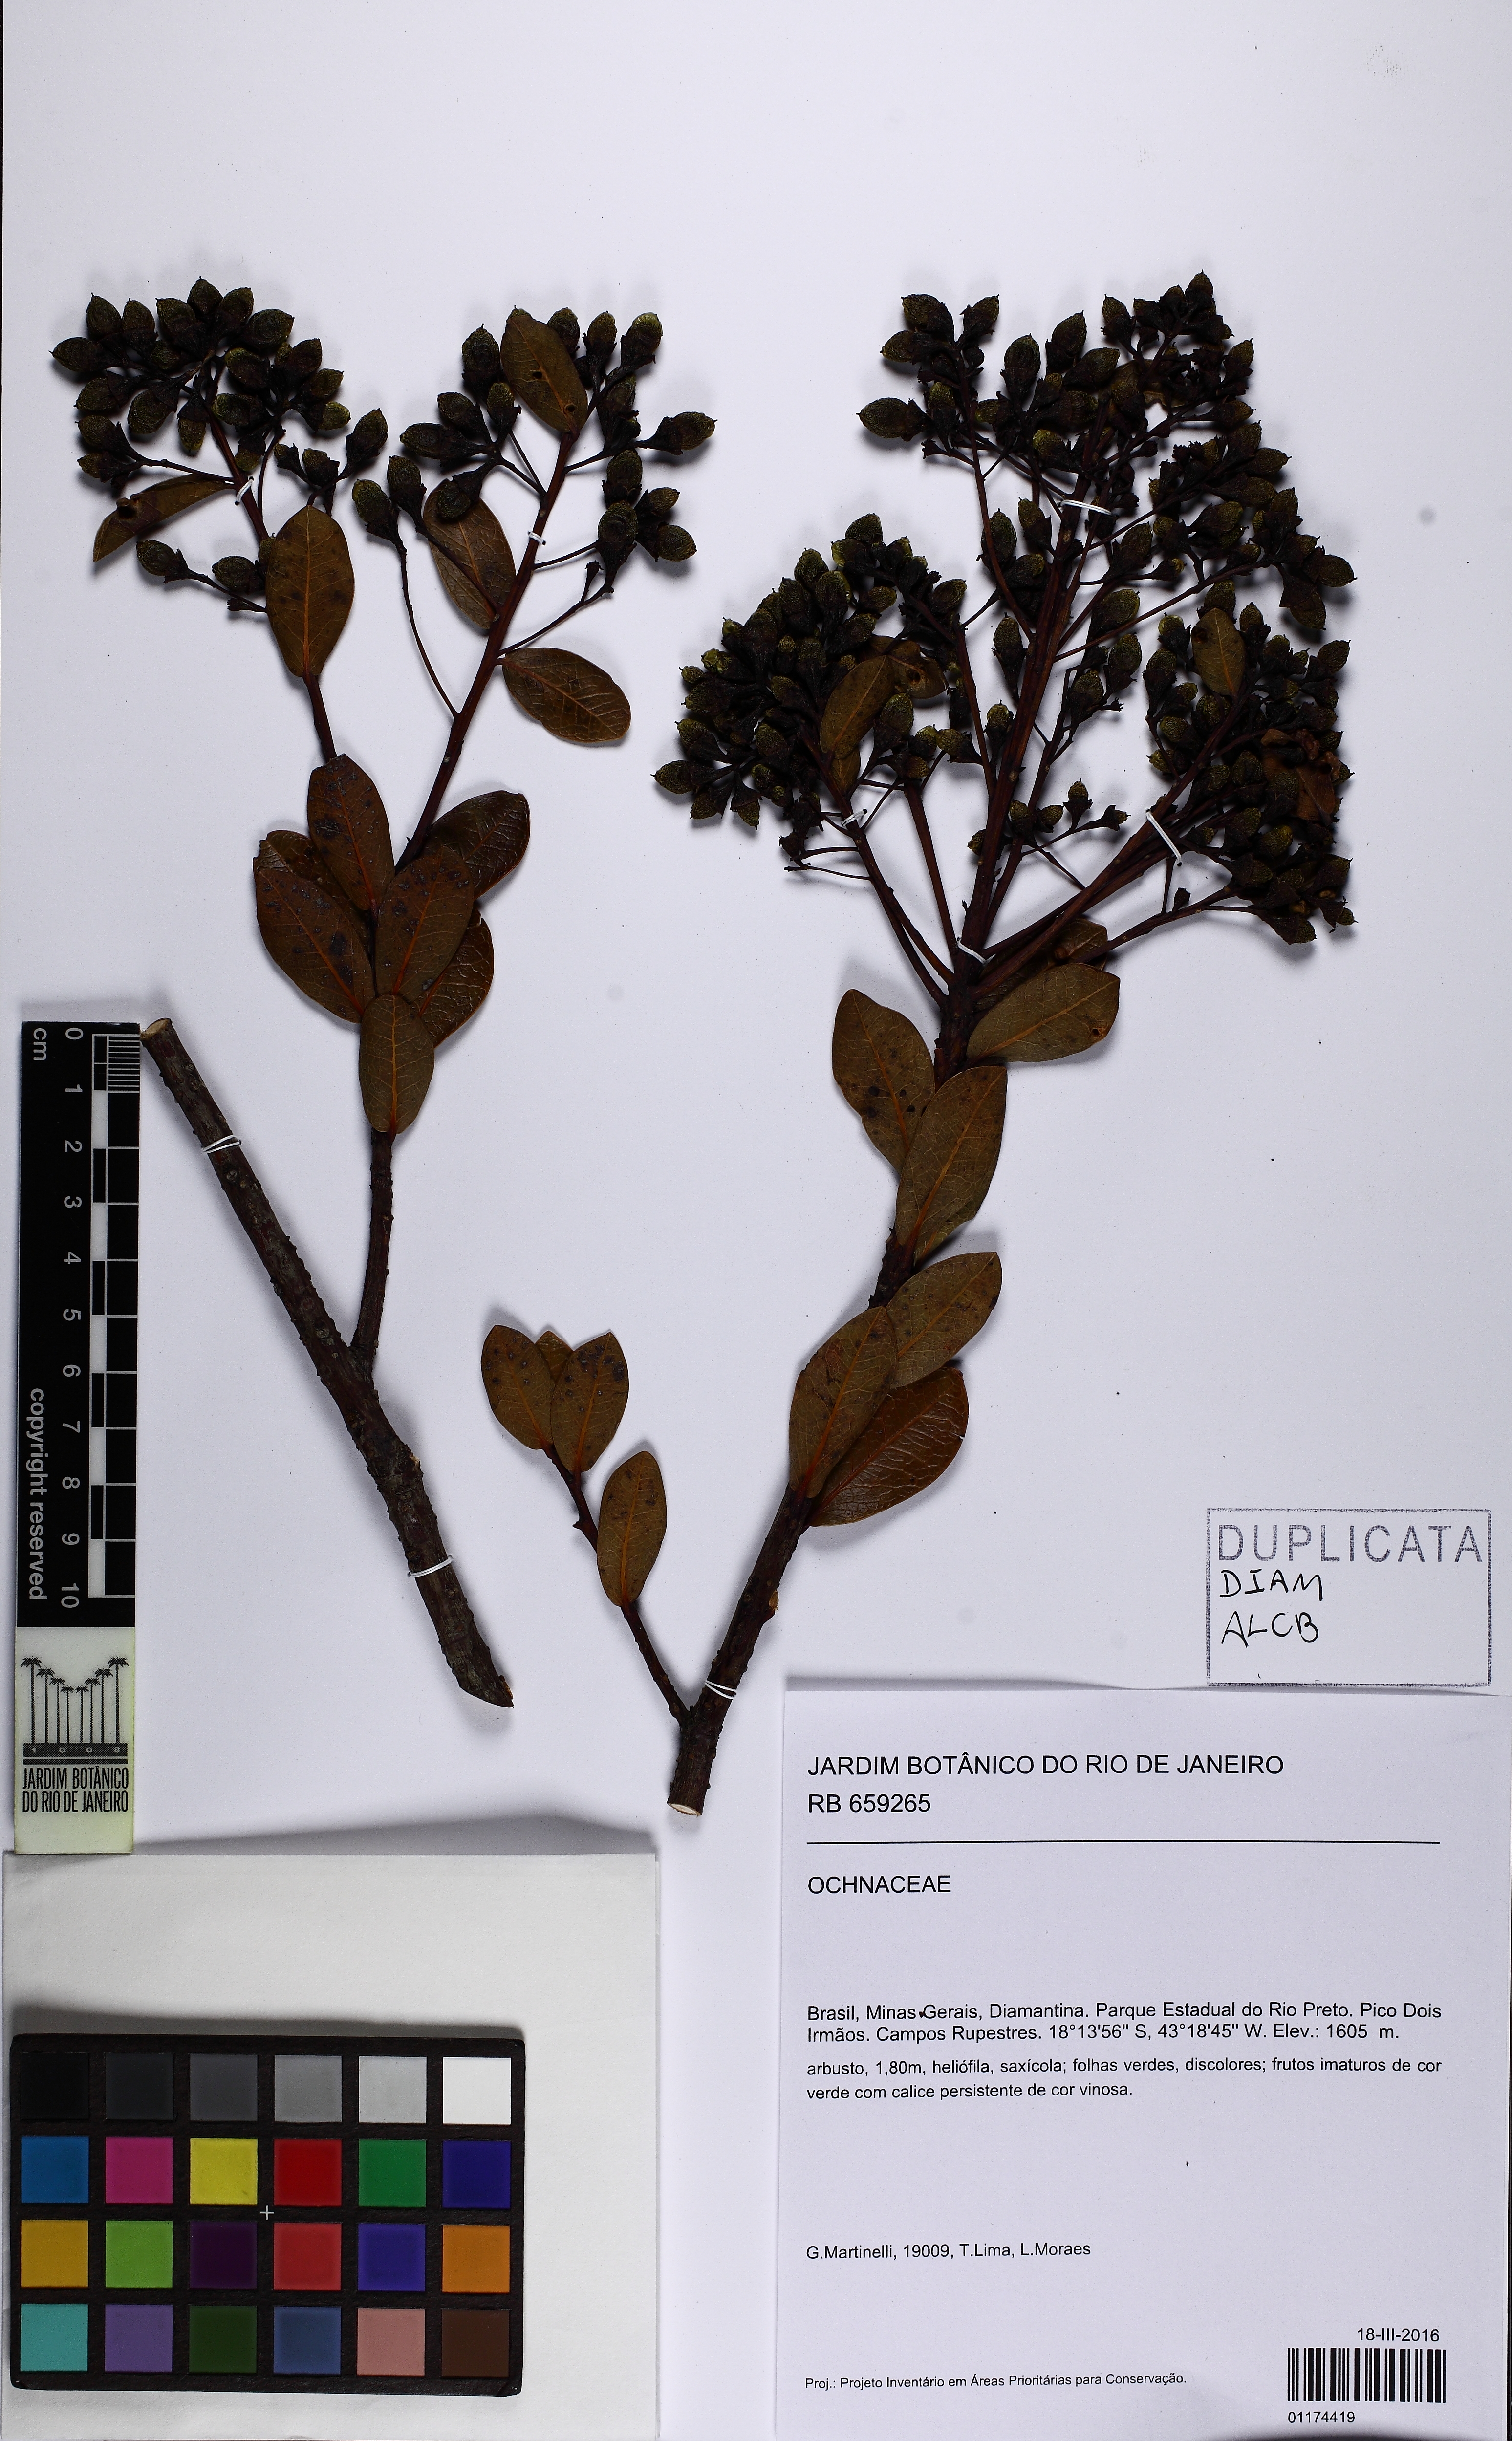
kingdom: Plantae
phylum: Tracheophyta
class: Magnoliopsida
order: Laurales
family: Lauraceae
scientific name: Lauraceae
